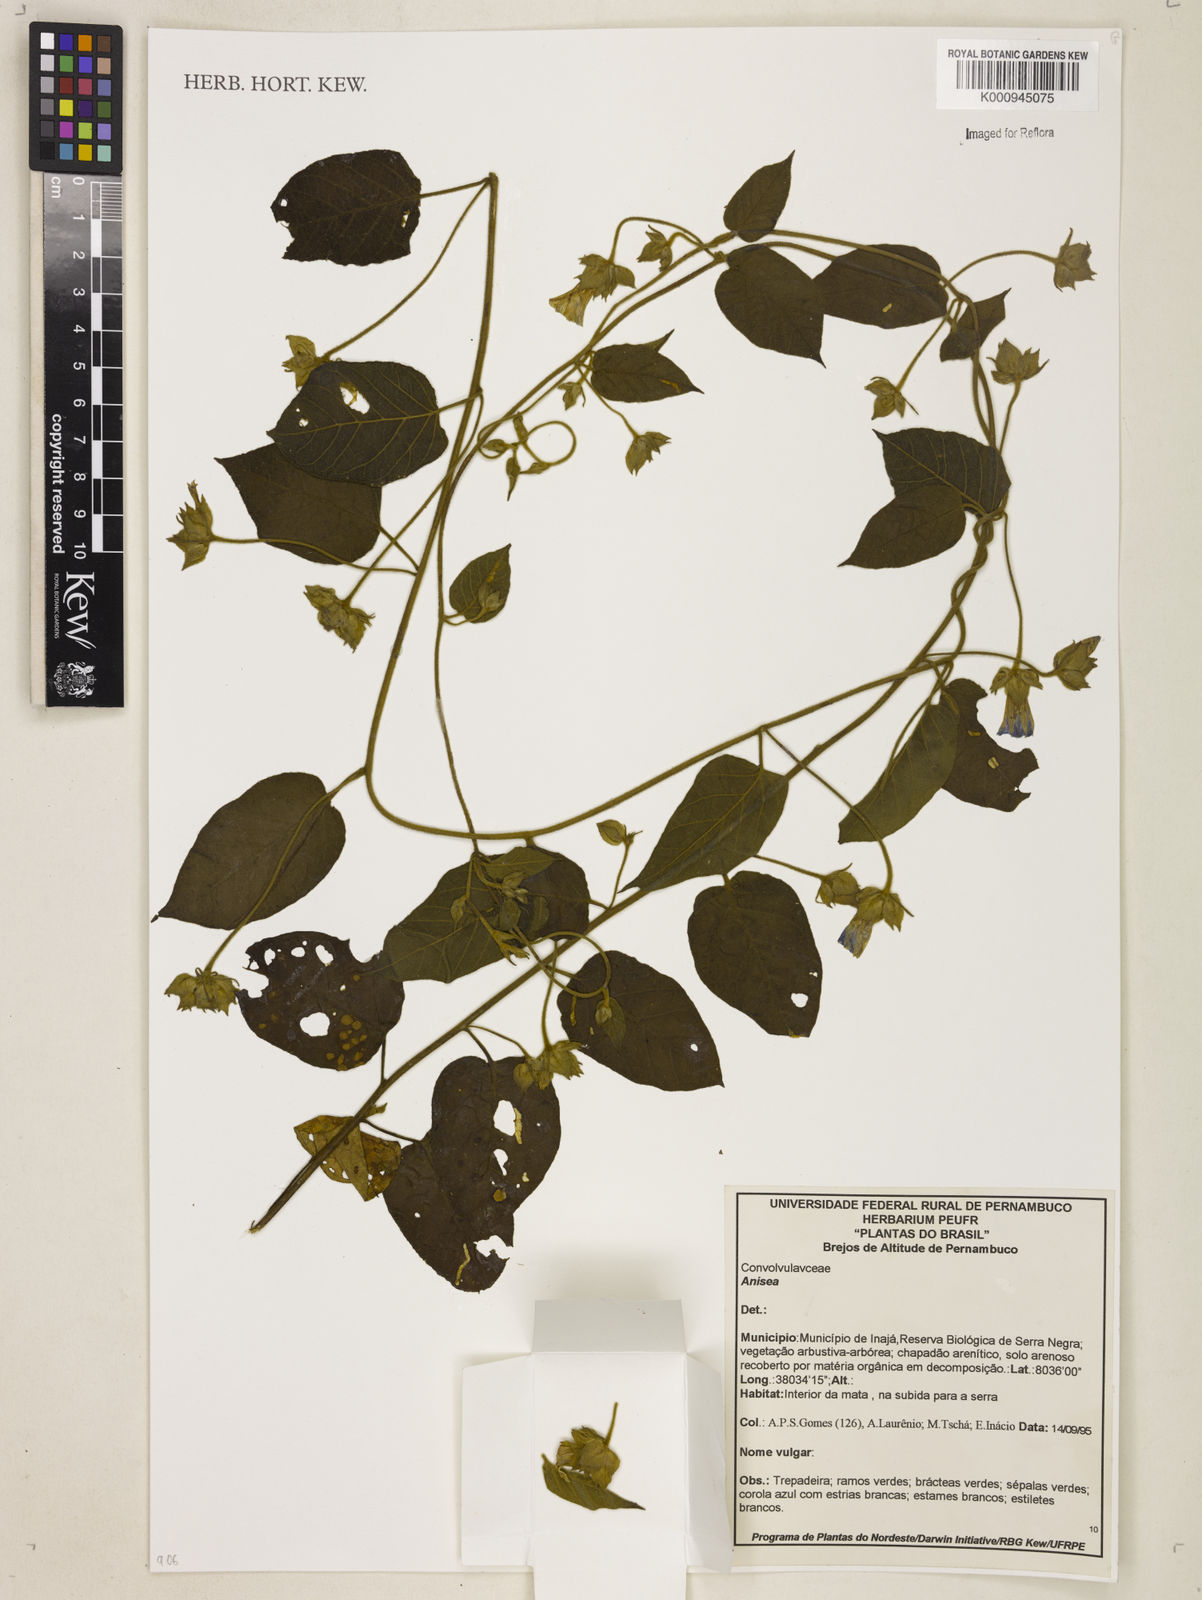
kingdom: Plantae
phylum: Tracheophyta
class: Magnoliopsida
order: Solanales
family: Convolvulaceae
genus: Aniseia
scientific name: Aniseia
